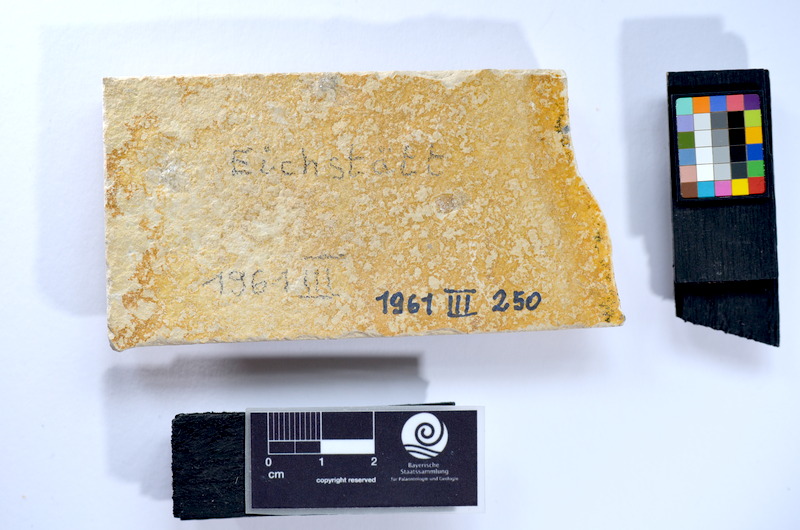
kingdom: Animalia
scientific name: Animalia
